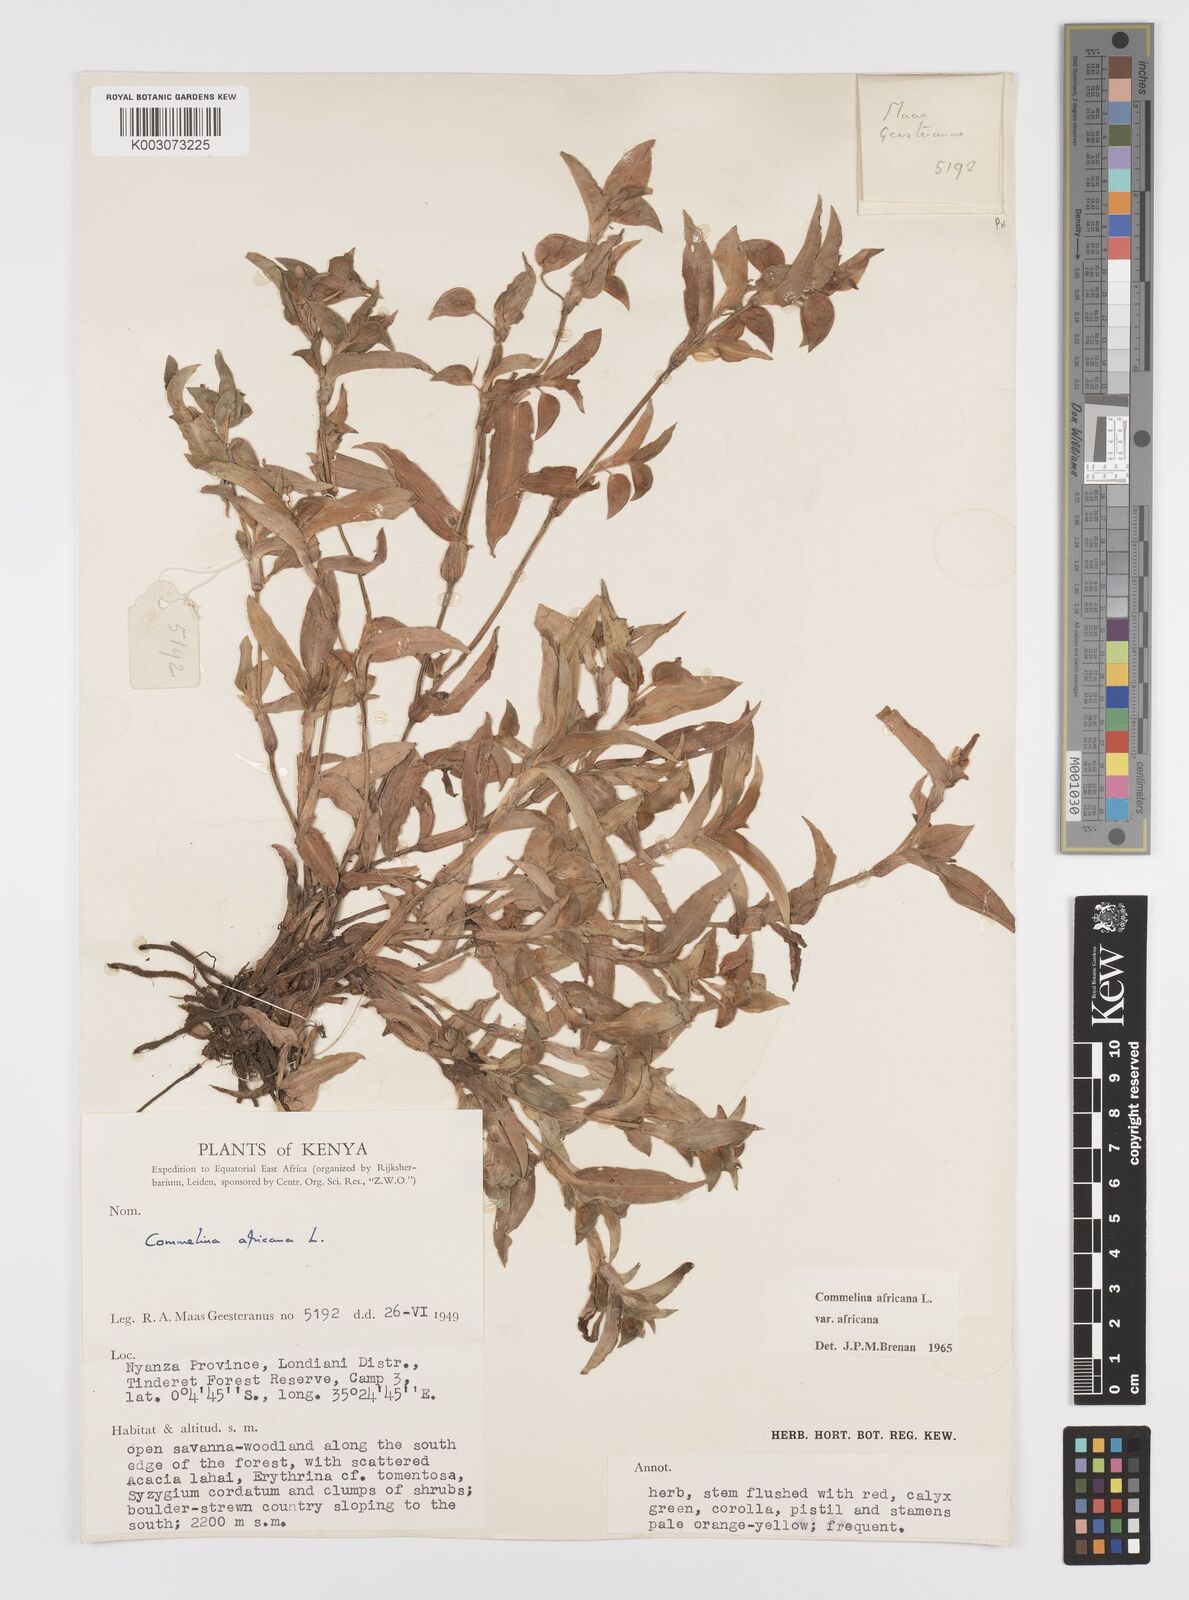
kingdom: Plantae
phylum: Tracheophyta
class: Liliopsida
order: Commelinales
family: Commelinaceae
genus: Commelina
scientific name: Commelina africana
